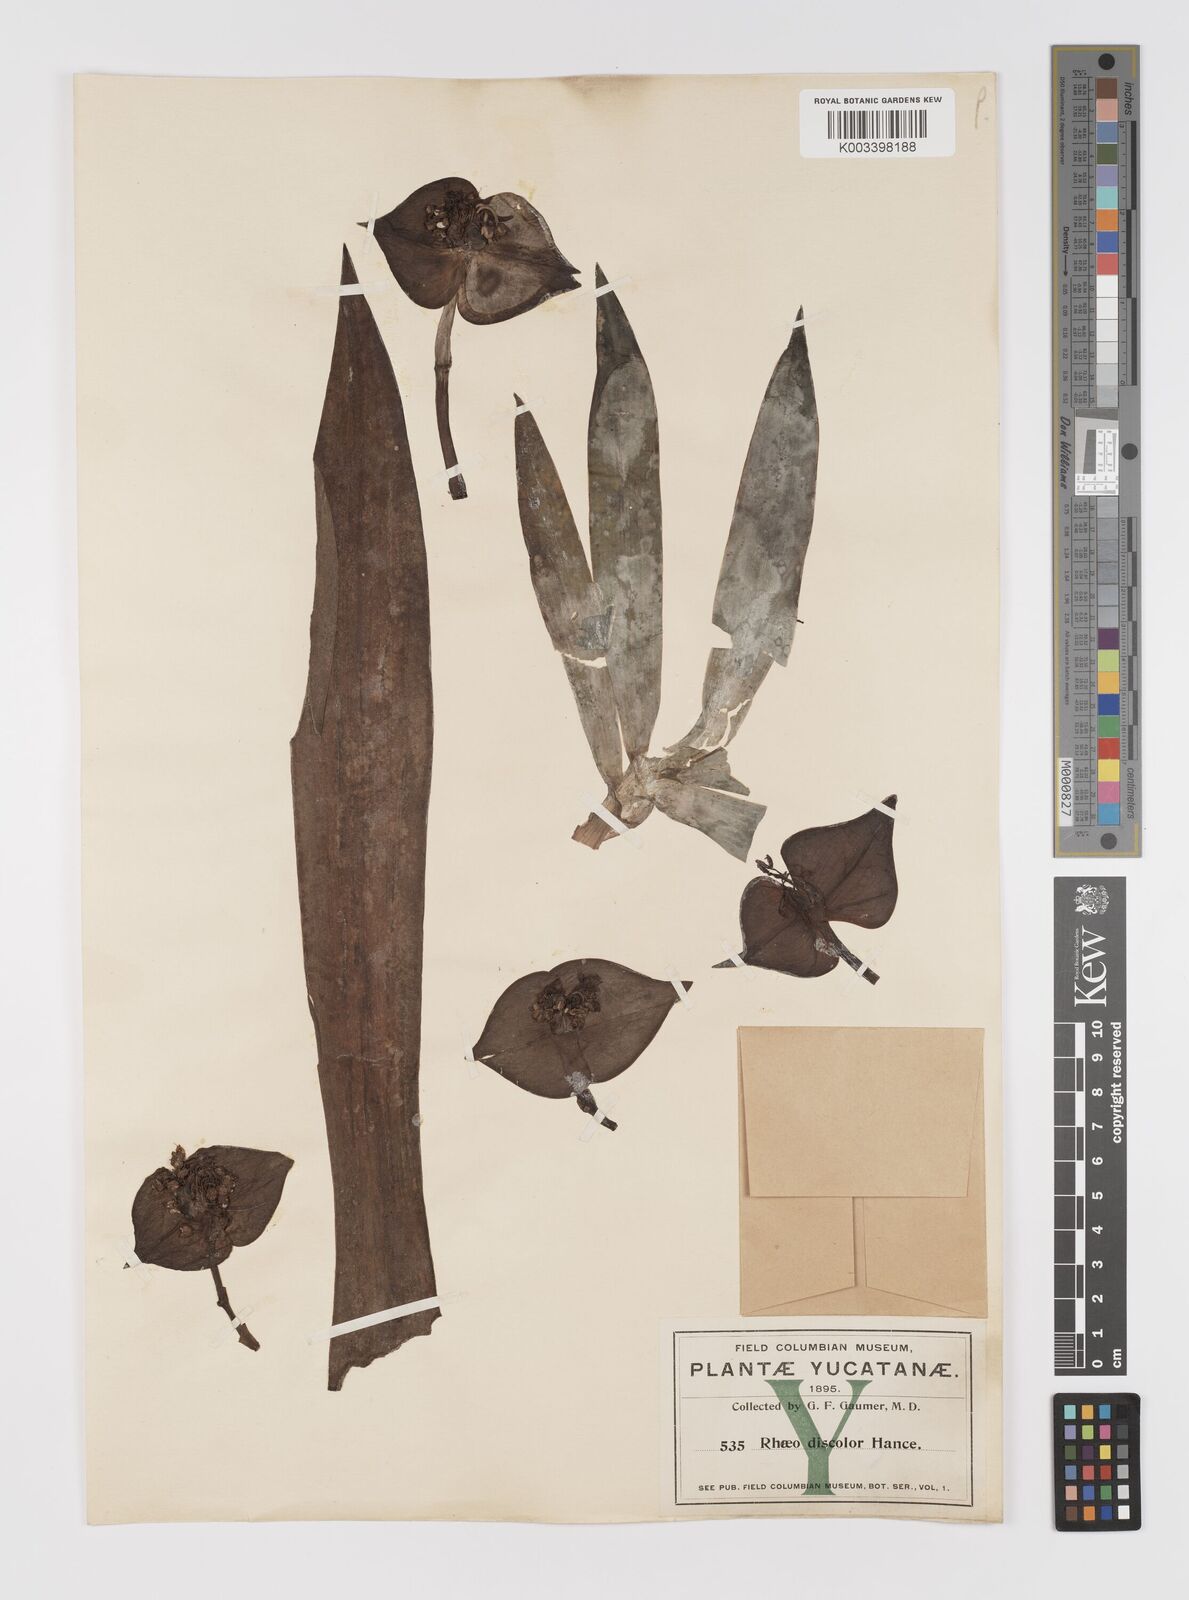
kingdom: Plantae
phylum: Tracheophyta
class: Liliopsida
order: Commelinales
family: Commelinaceae
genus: Tradescantia
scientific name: Tradescantia spathacea
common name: Boatlily
